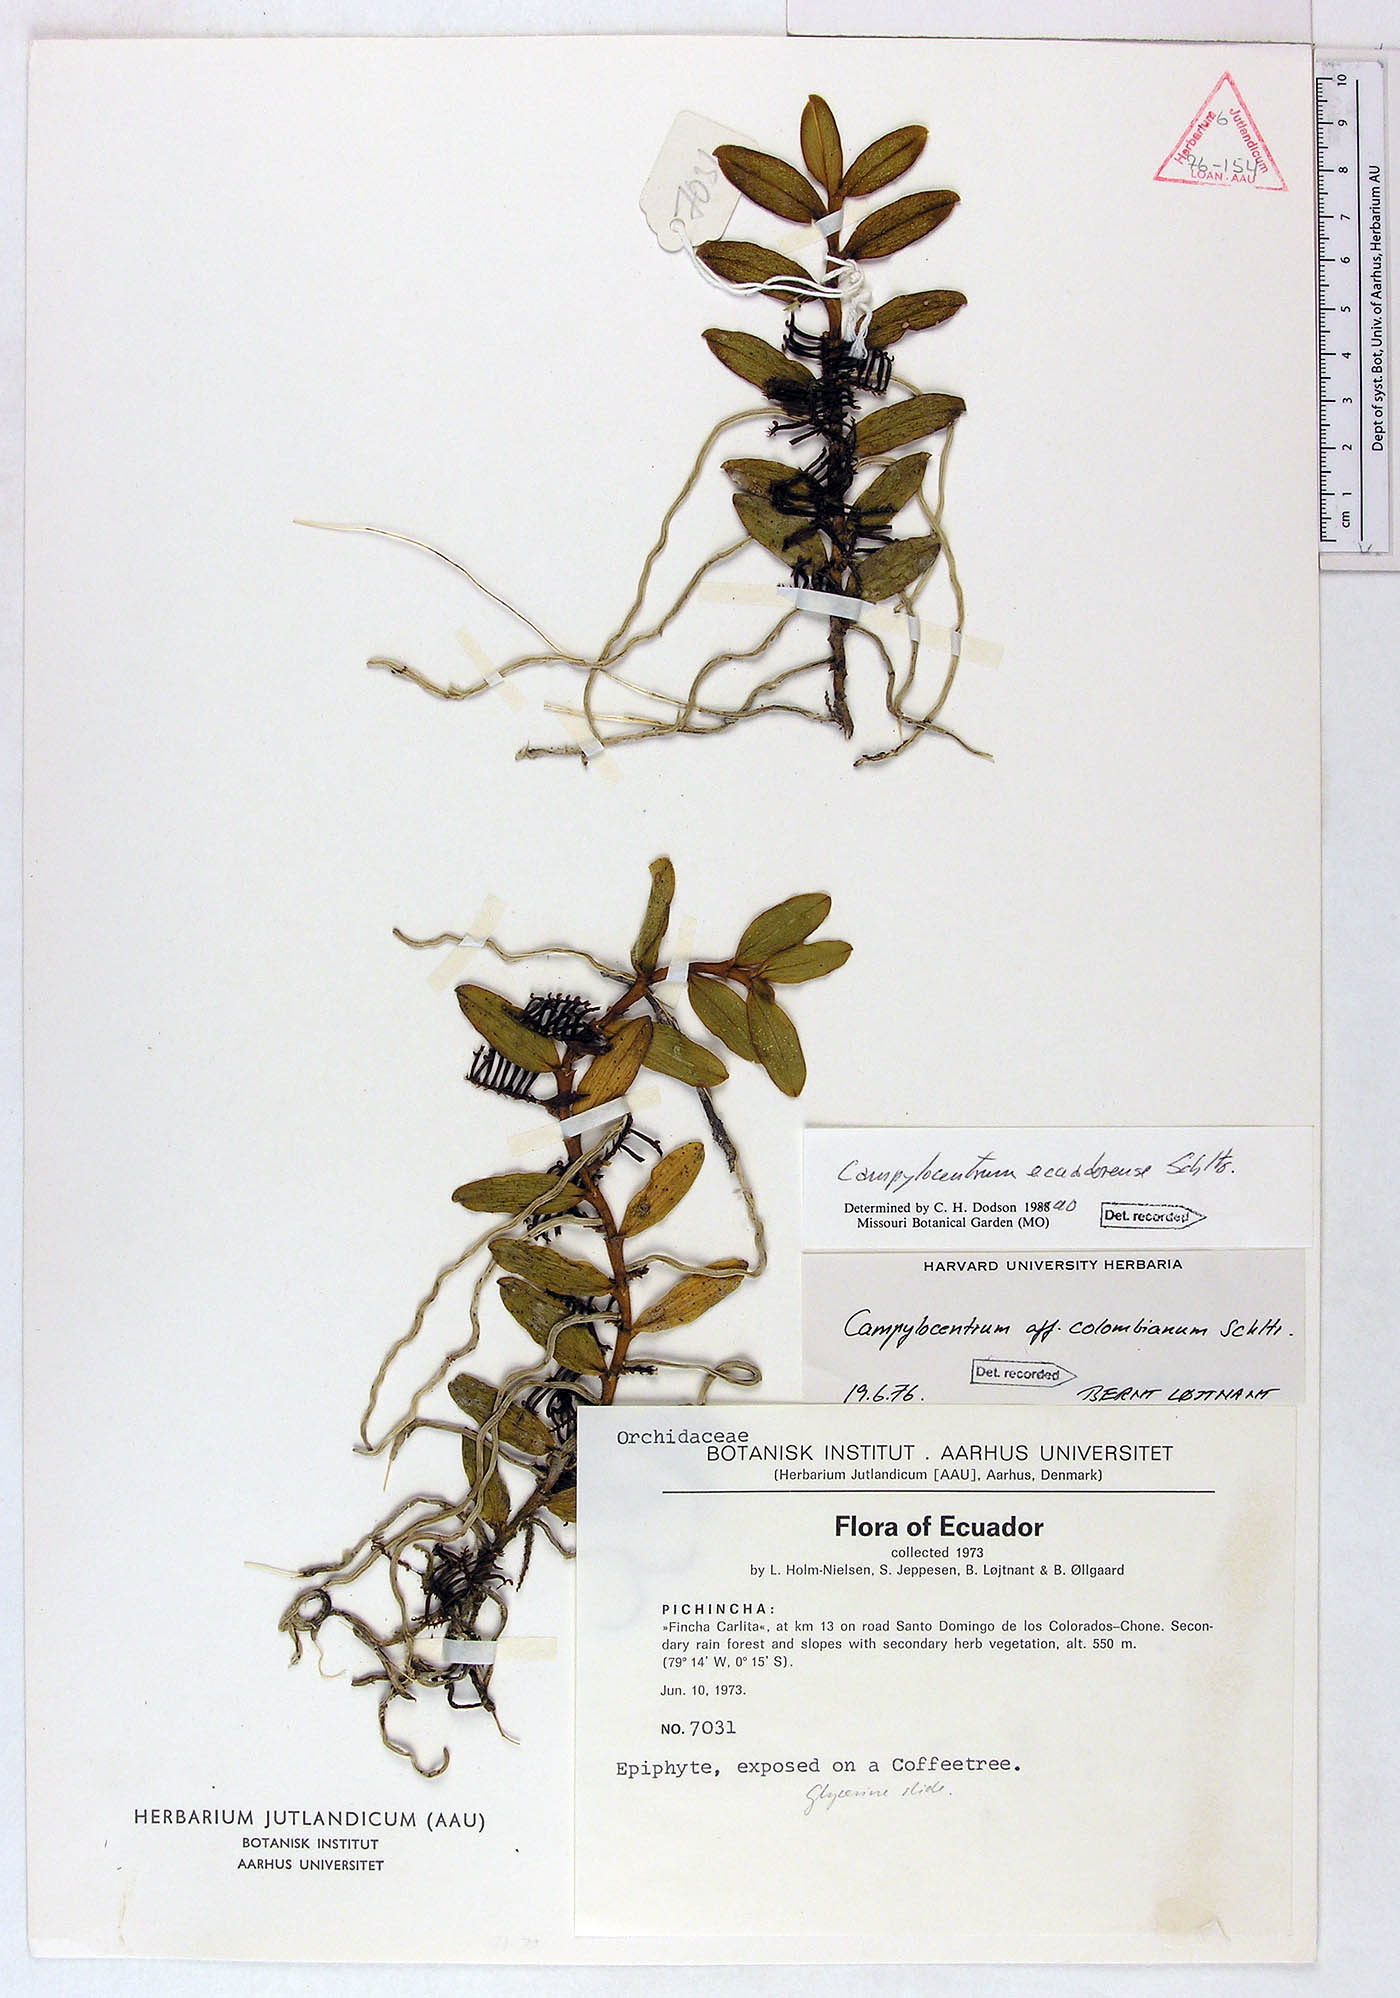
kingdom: Plantae
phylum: Tracheophyta
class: Liliopsida
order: Asparagales
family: Orchidaceae
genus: Campylocentrum
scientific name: Campylocentrum ecuadorense
